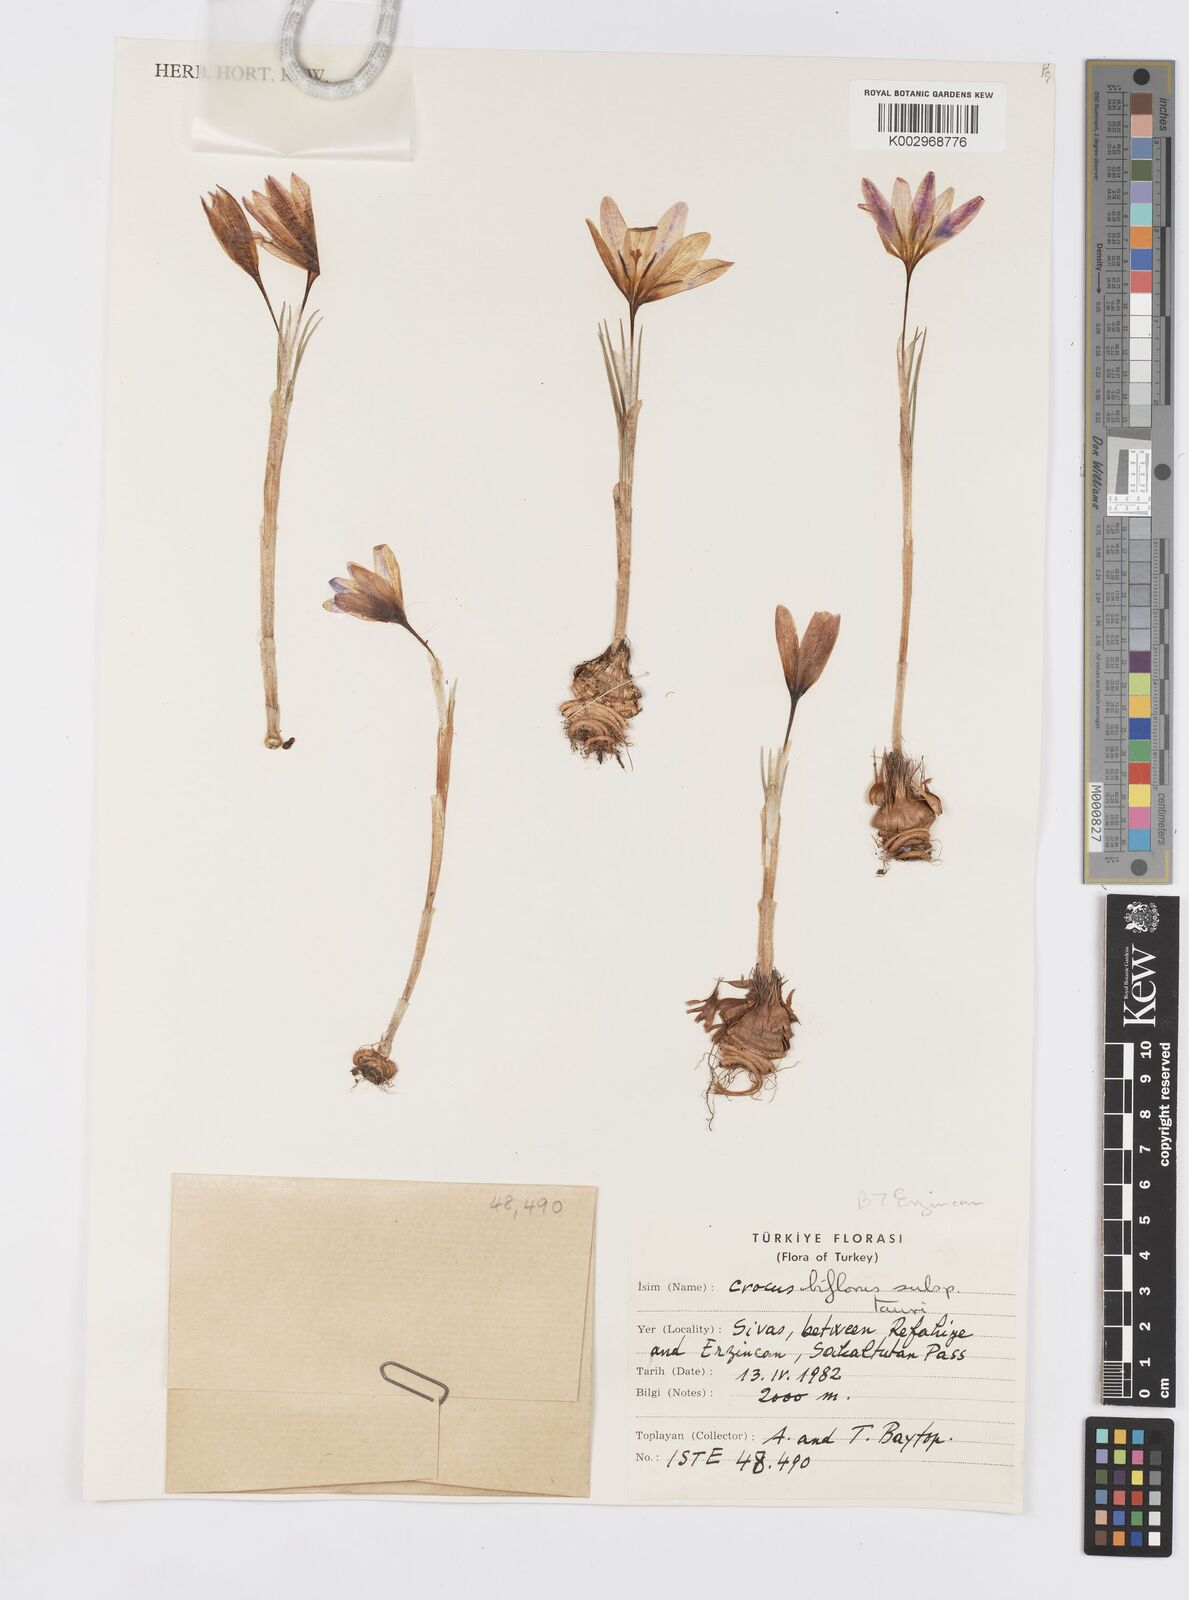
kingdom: Plantae
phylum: Tracheophyta
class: Liliopsida
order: Asparagales
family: Iridaceae
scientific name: Iridaceae
